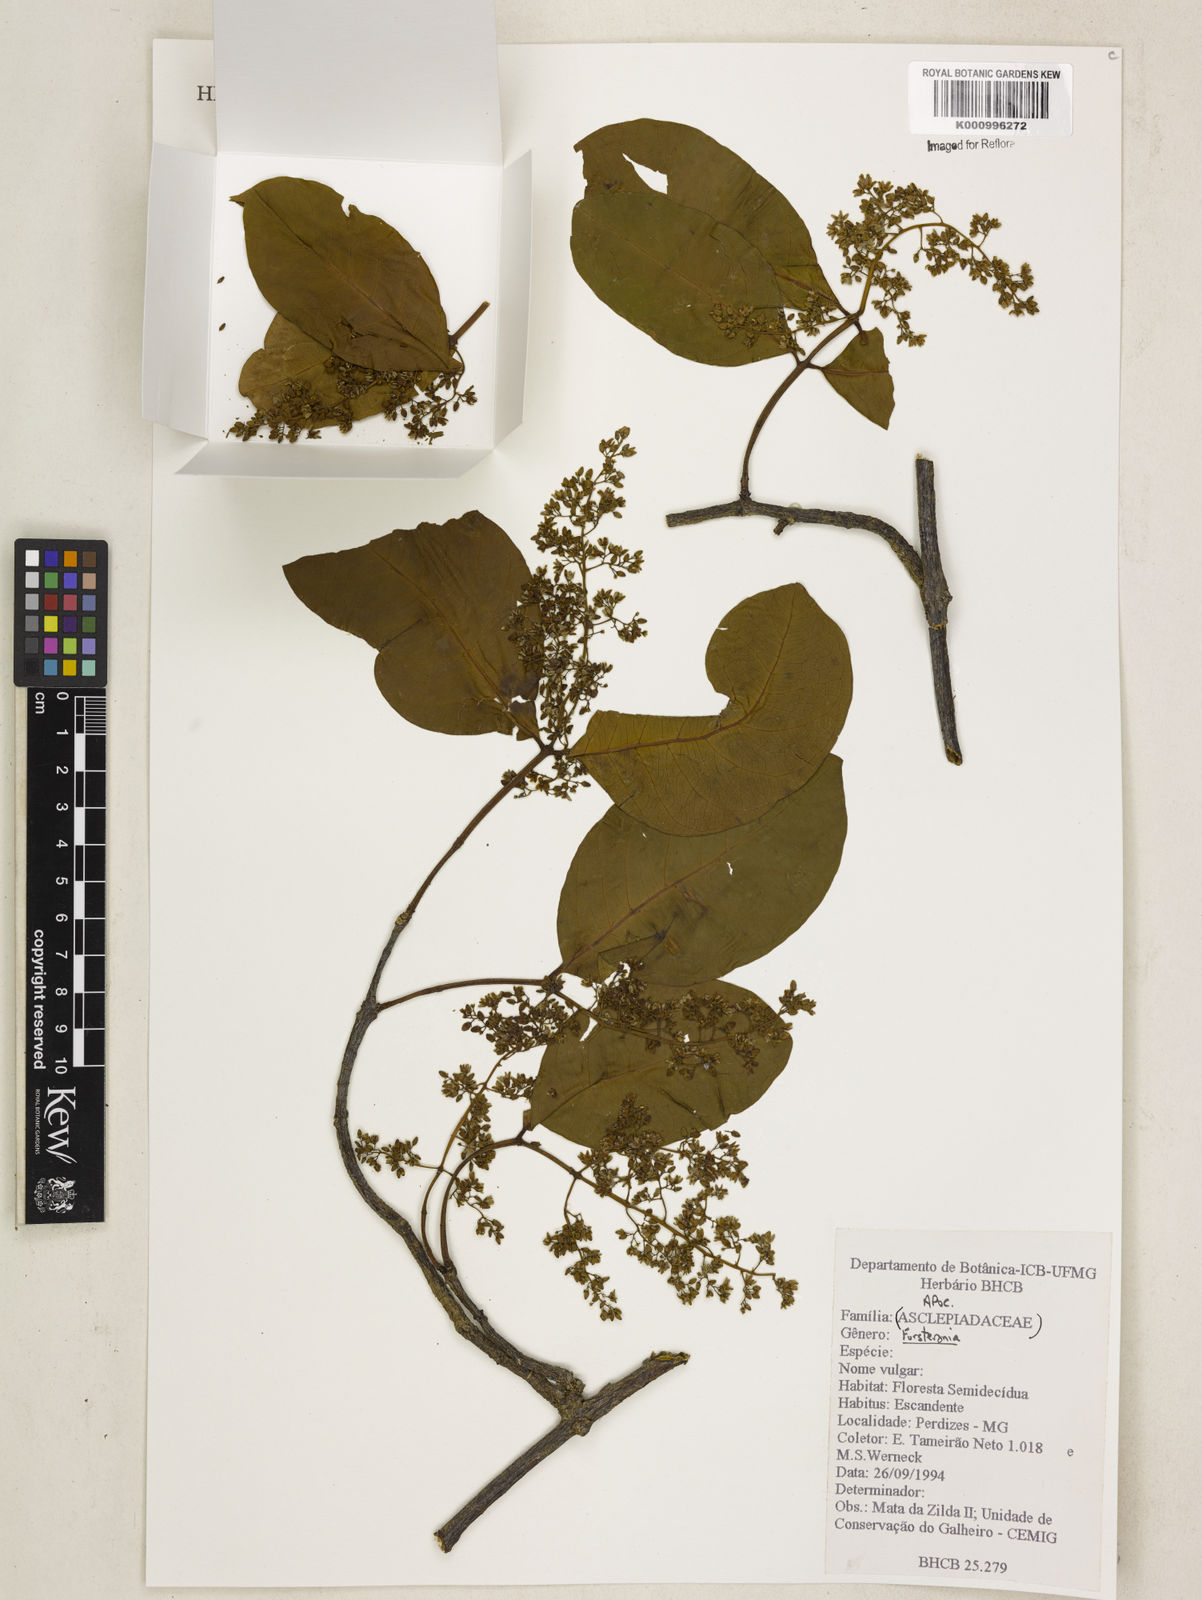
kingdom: Plantae
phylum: Tracheophyta
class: Magnoliopsida
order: Gentianales
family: Apocynaceae
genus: Forsteronia
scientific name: Forsteronia
